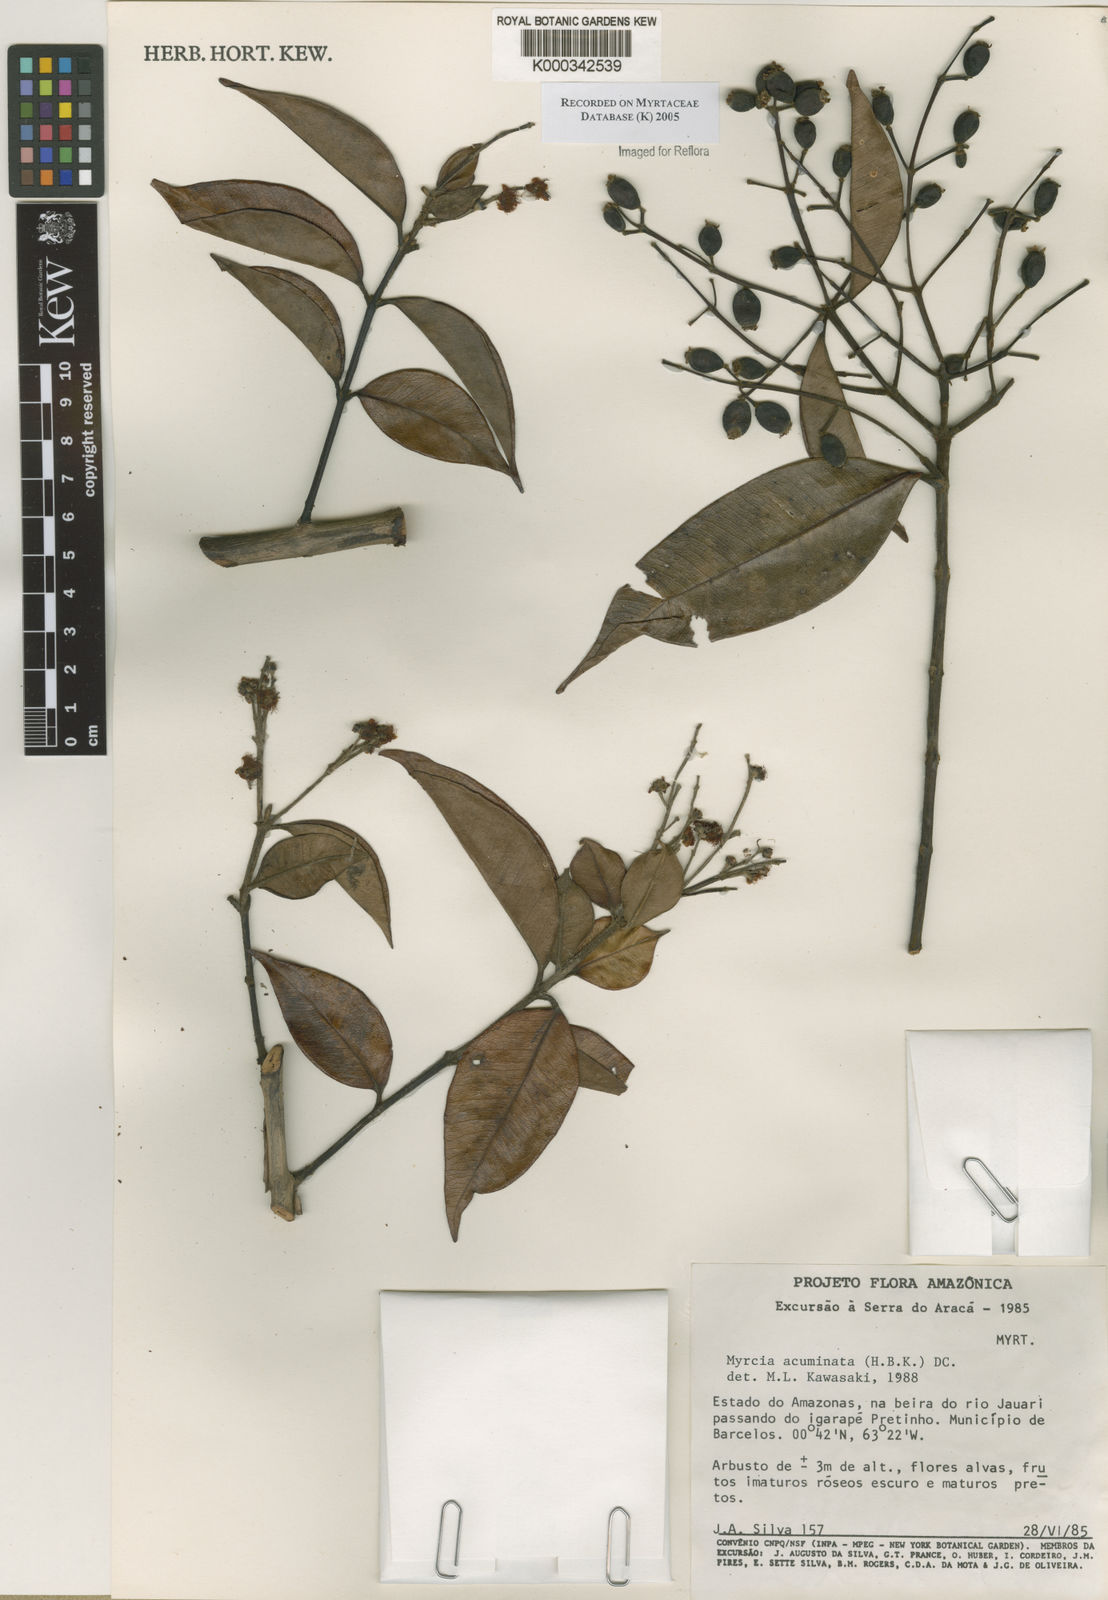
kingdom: Plantae
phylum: Tracheophyta
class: Magnoliopsida
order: Myrtales
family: Myrtaceae
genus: Myrcia
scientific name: Myrcia splendens
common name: Surinam cherry
